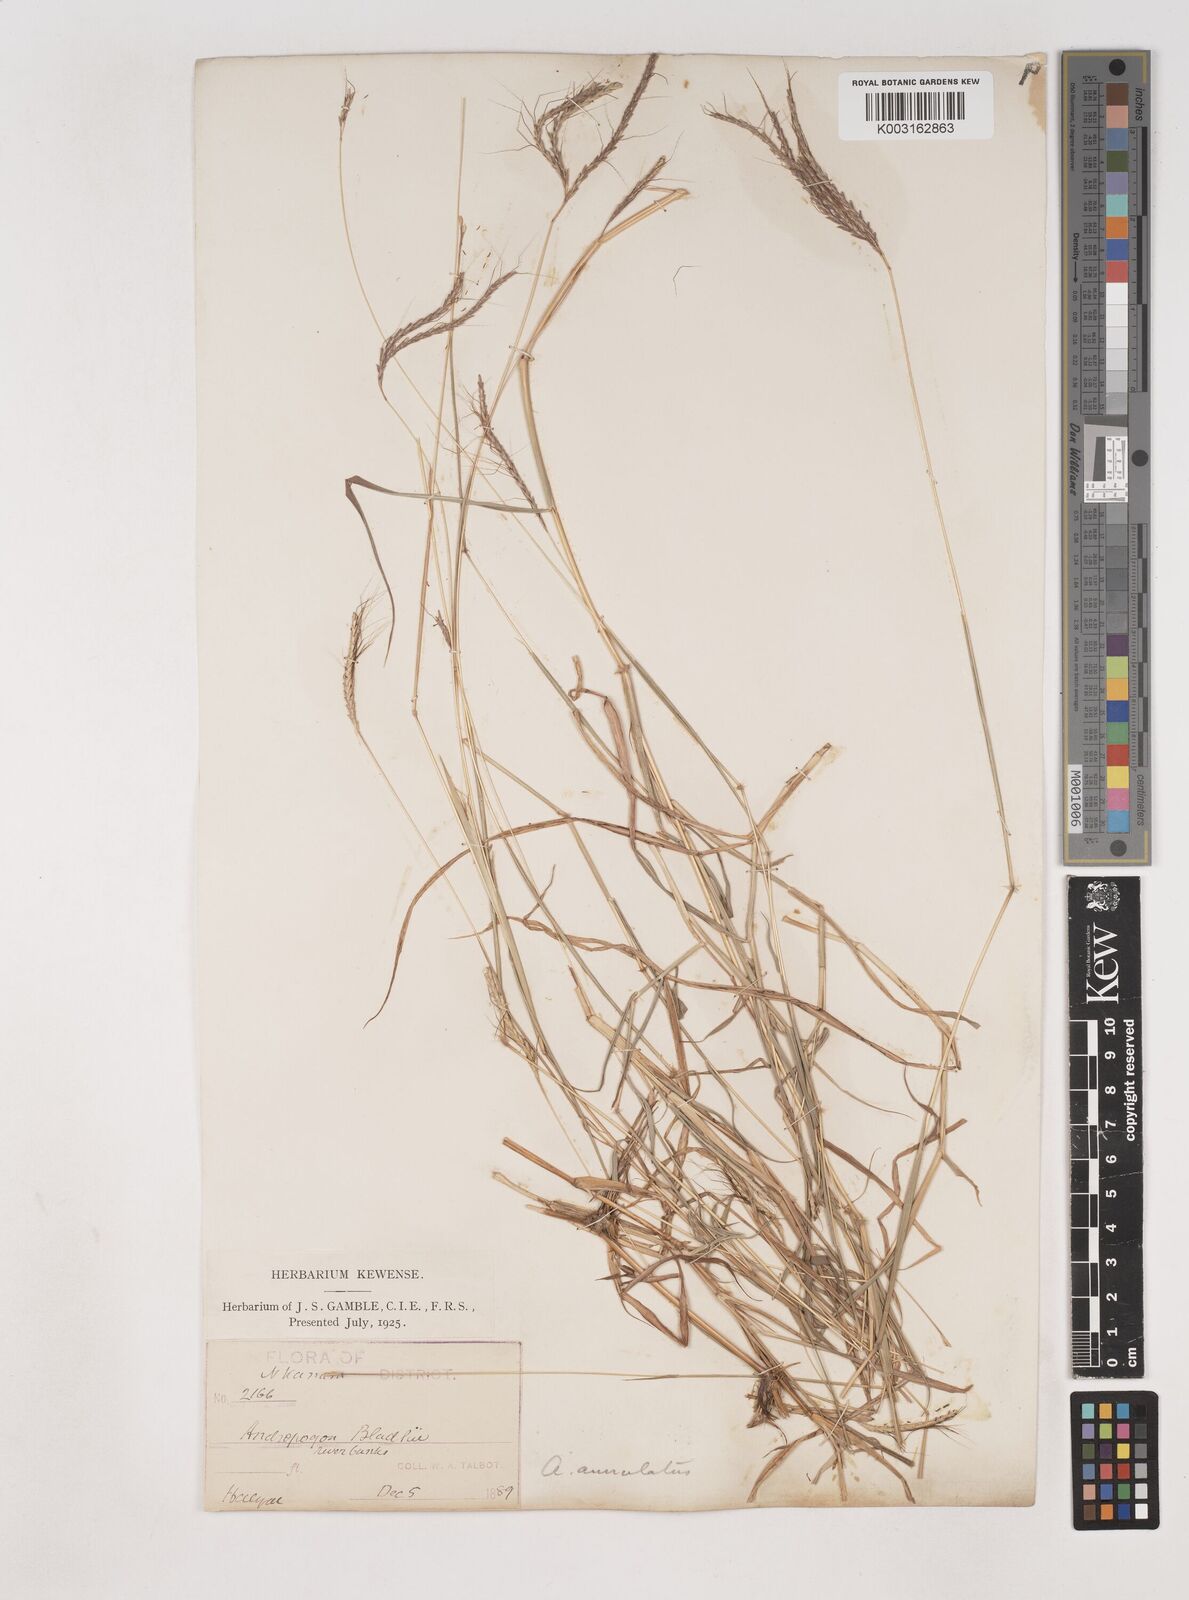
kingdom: Plantae
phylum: Tracheophyta
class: Liliopsida
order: Poales
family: Poaceae
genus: Dichanthium
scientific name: Dichanthium annulatum
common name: Kleberg's bluestem
